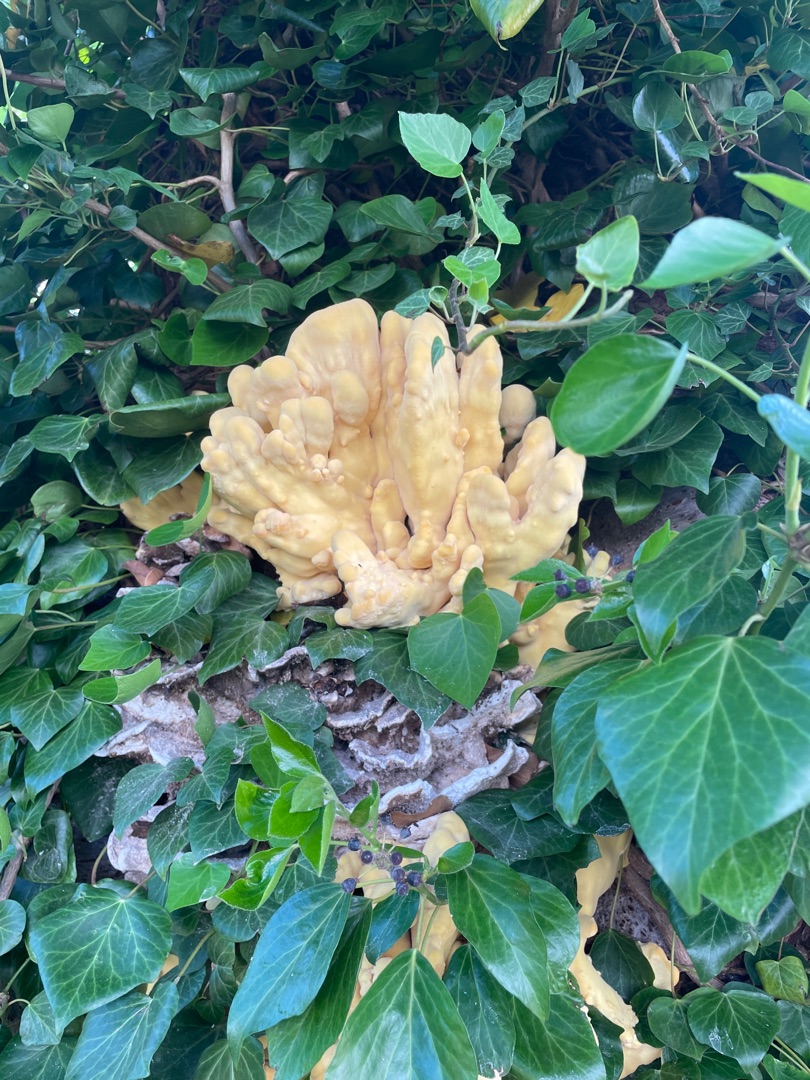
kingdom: Fungi
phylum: Basidiomycota
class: Agaricomycetes
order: Polyporales
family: Laetiporaceae
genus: Laetiporus
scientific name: Laetiporus sulphureus
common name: Svovlporesvamp
